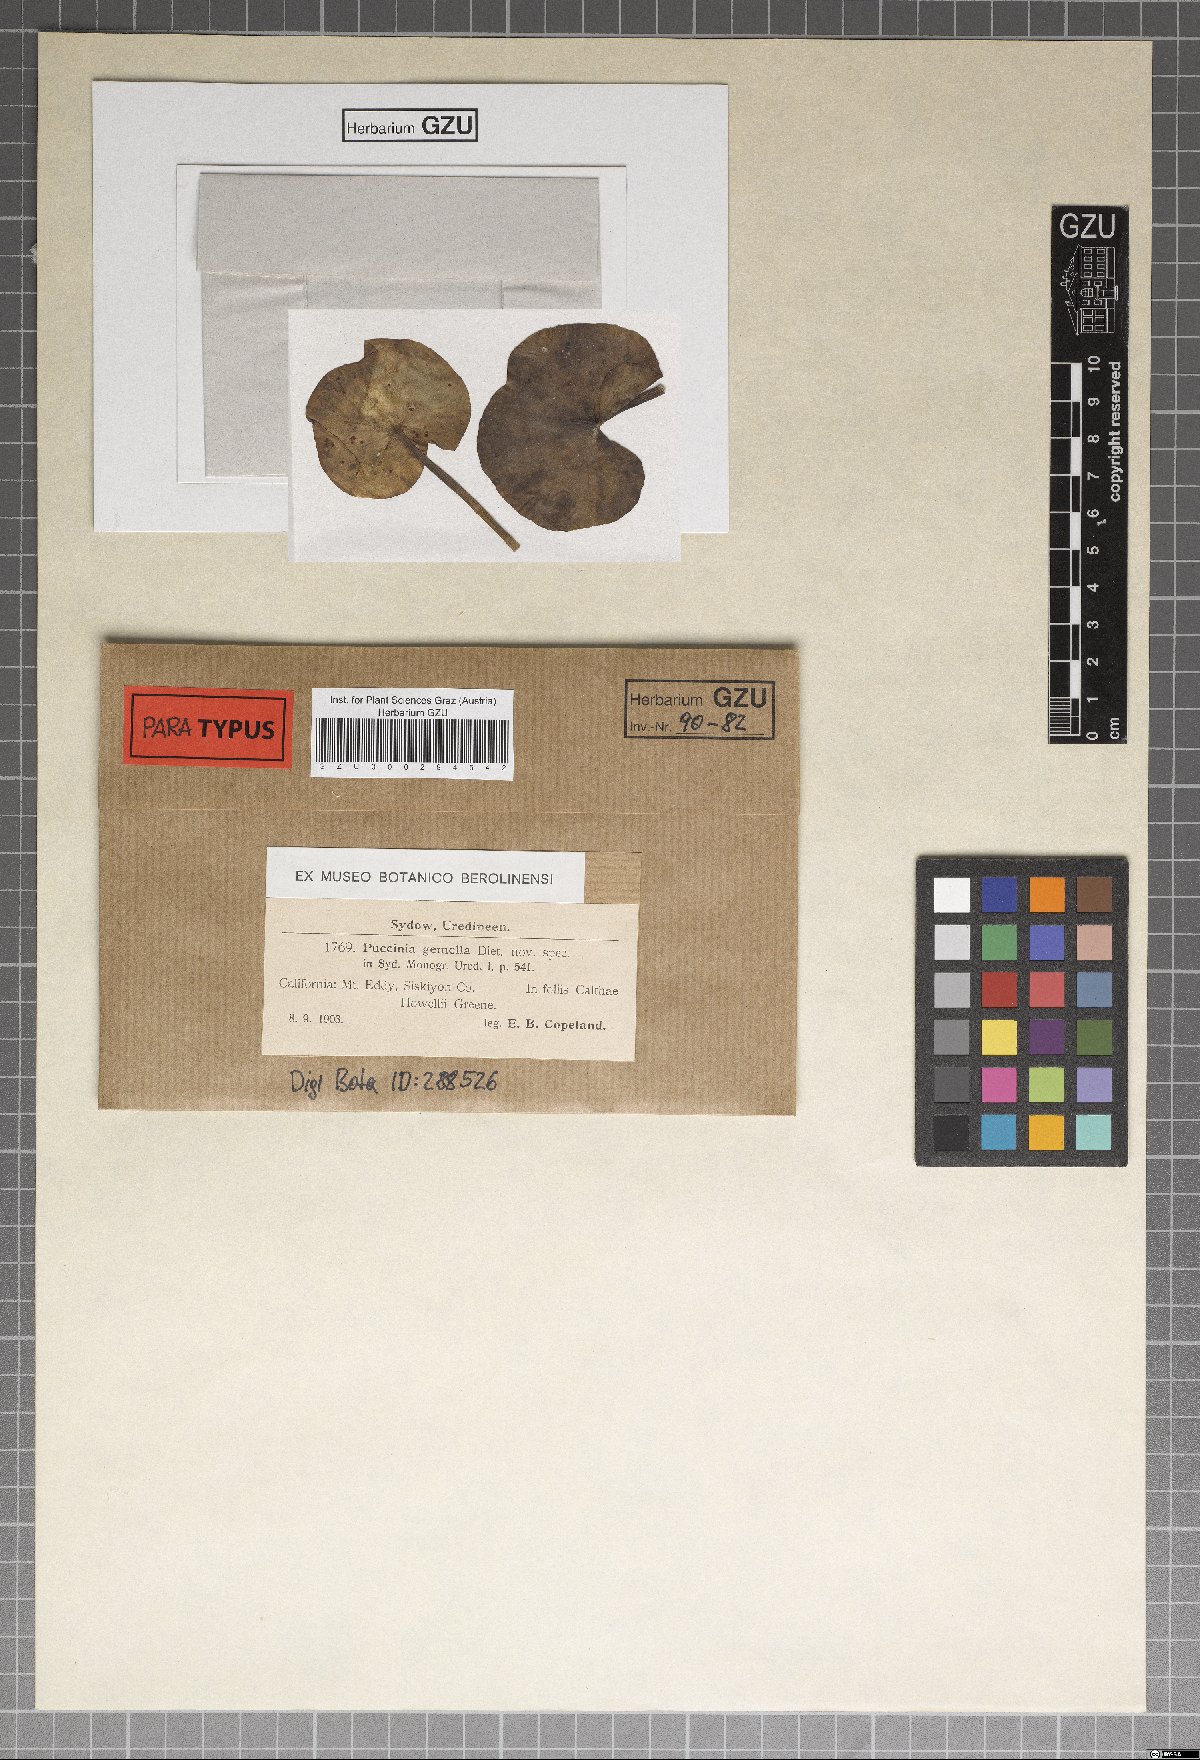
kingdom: Fungi
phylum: Basidiomycota
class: Pucciniomycetes
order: Pucciniales
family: Pucciniaceae
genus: Puccinia
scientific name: Puccinia gemella
